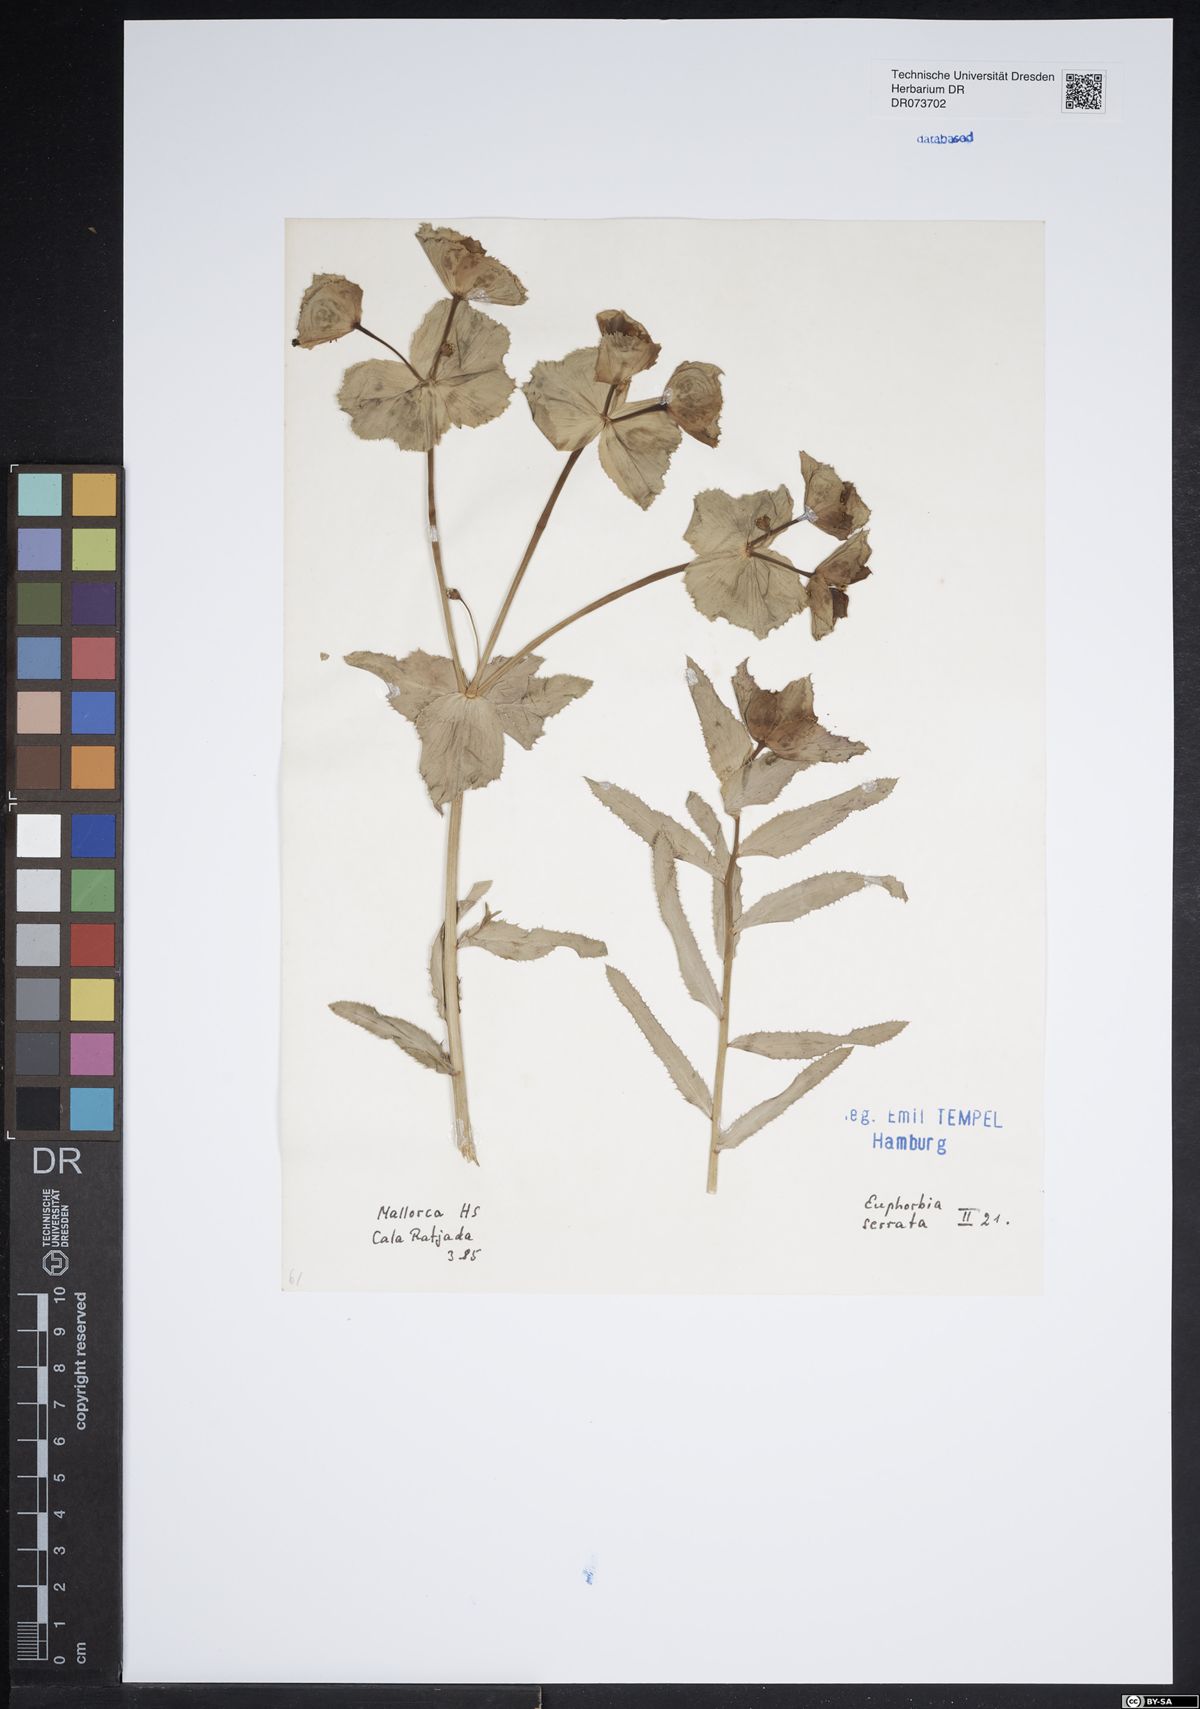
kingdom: Plantae
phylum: Tracheophyta
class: Magnoliopsida
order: Malpighiales
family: Euphorbiaceae
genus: Euphorbia
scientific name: Euphorbia serrata
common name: Serrate spurge
